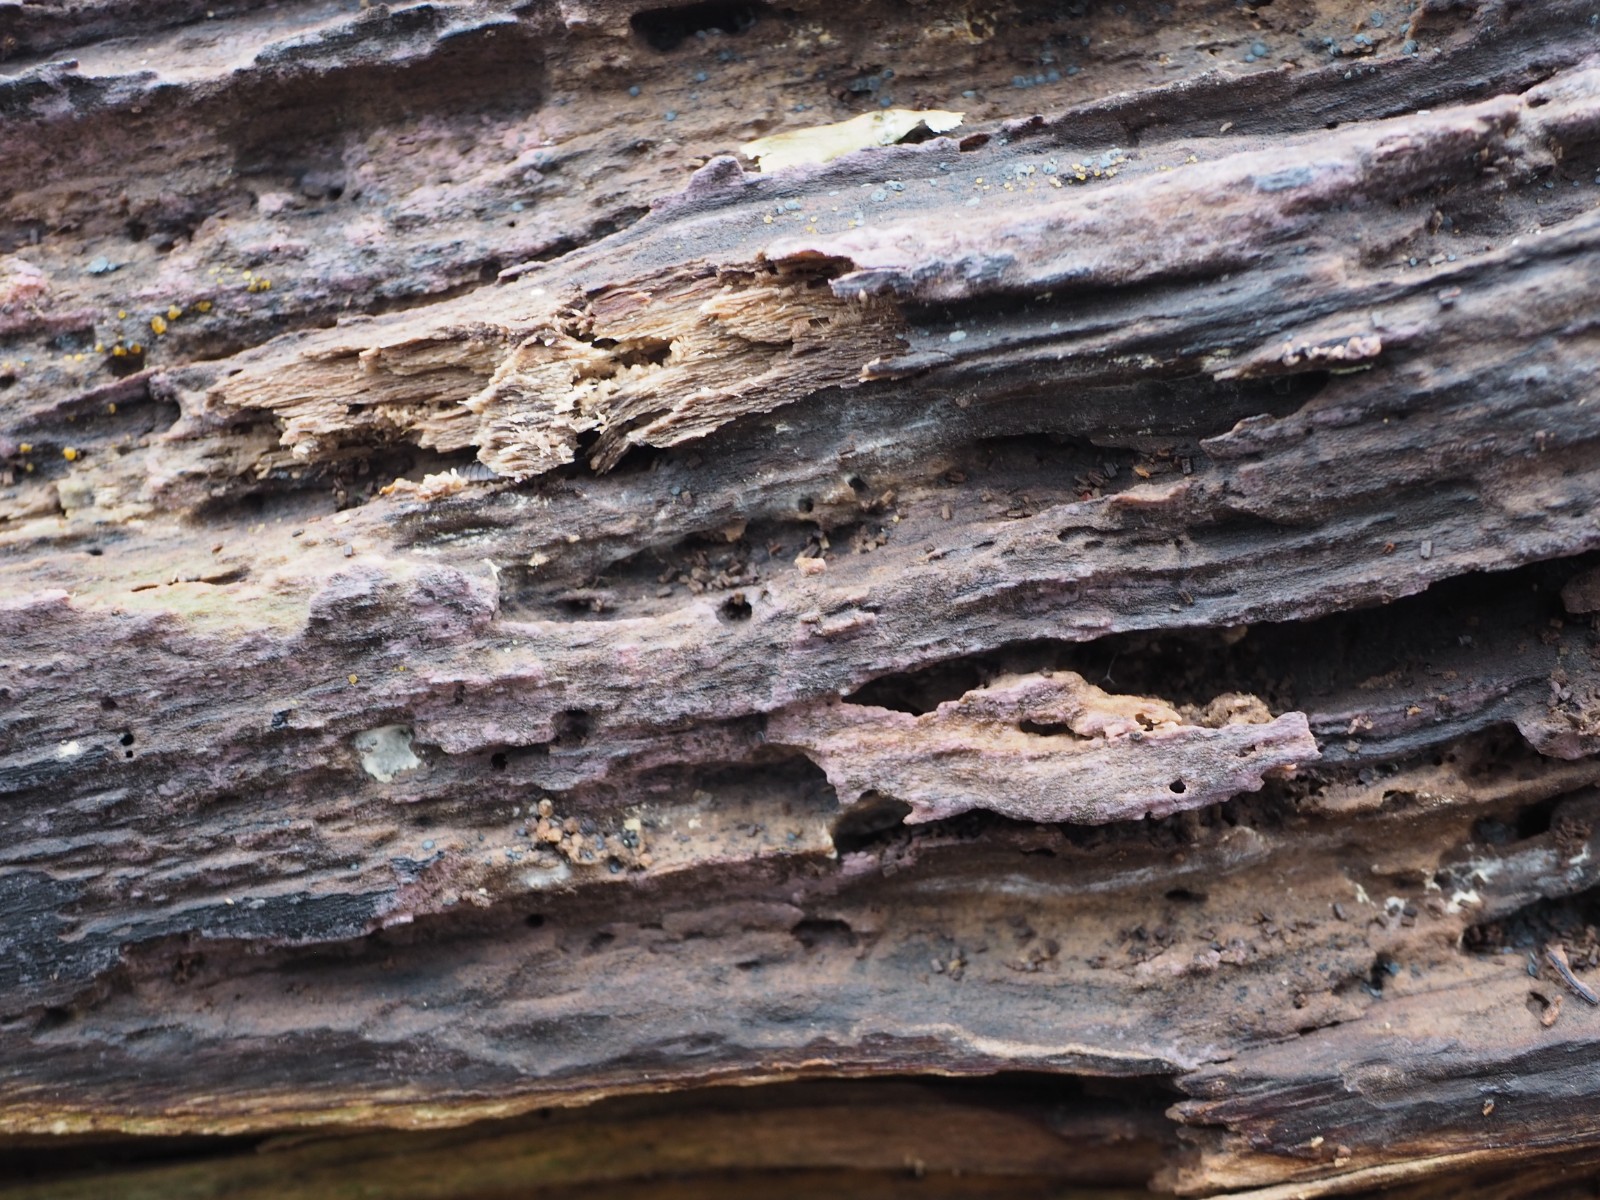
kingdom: Fungi
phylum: Basidiomycota
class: Agaricomycetes
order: Cantharellales
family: Tulasnellaceae
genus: Tulasnella
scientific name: Tulasnella violea
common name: violet ballonhinde
